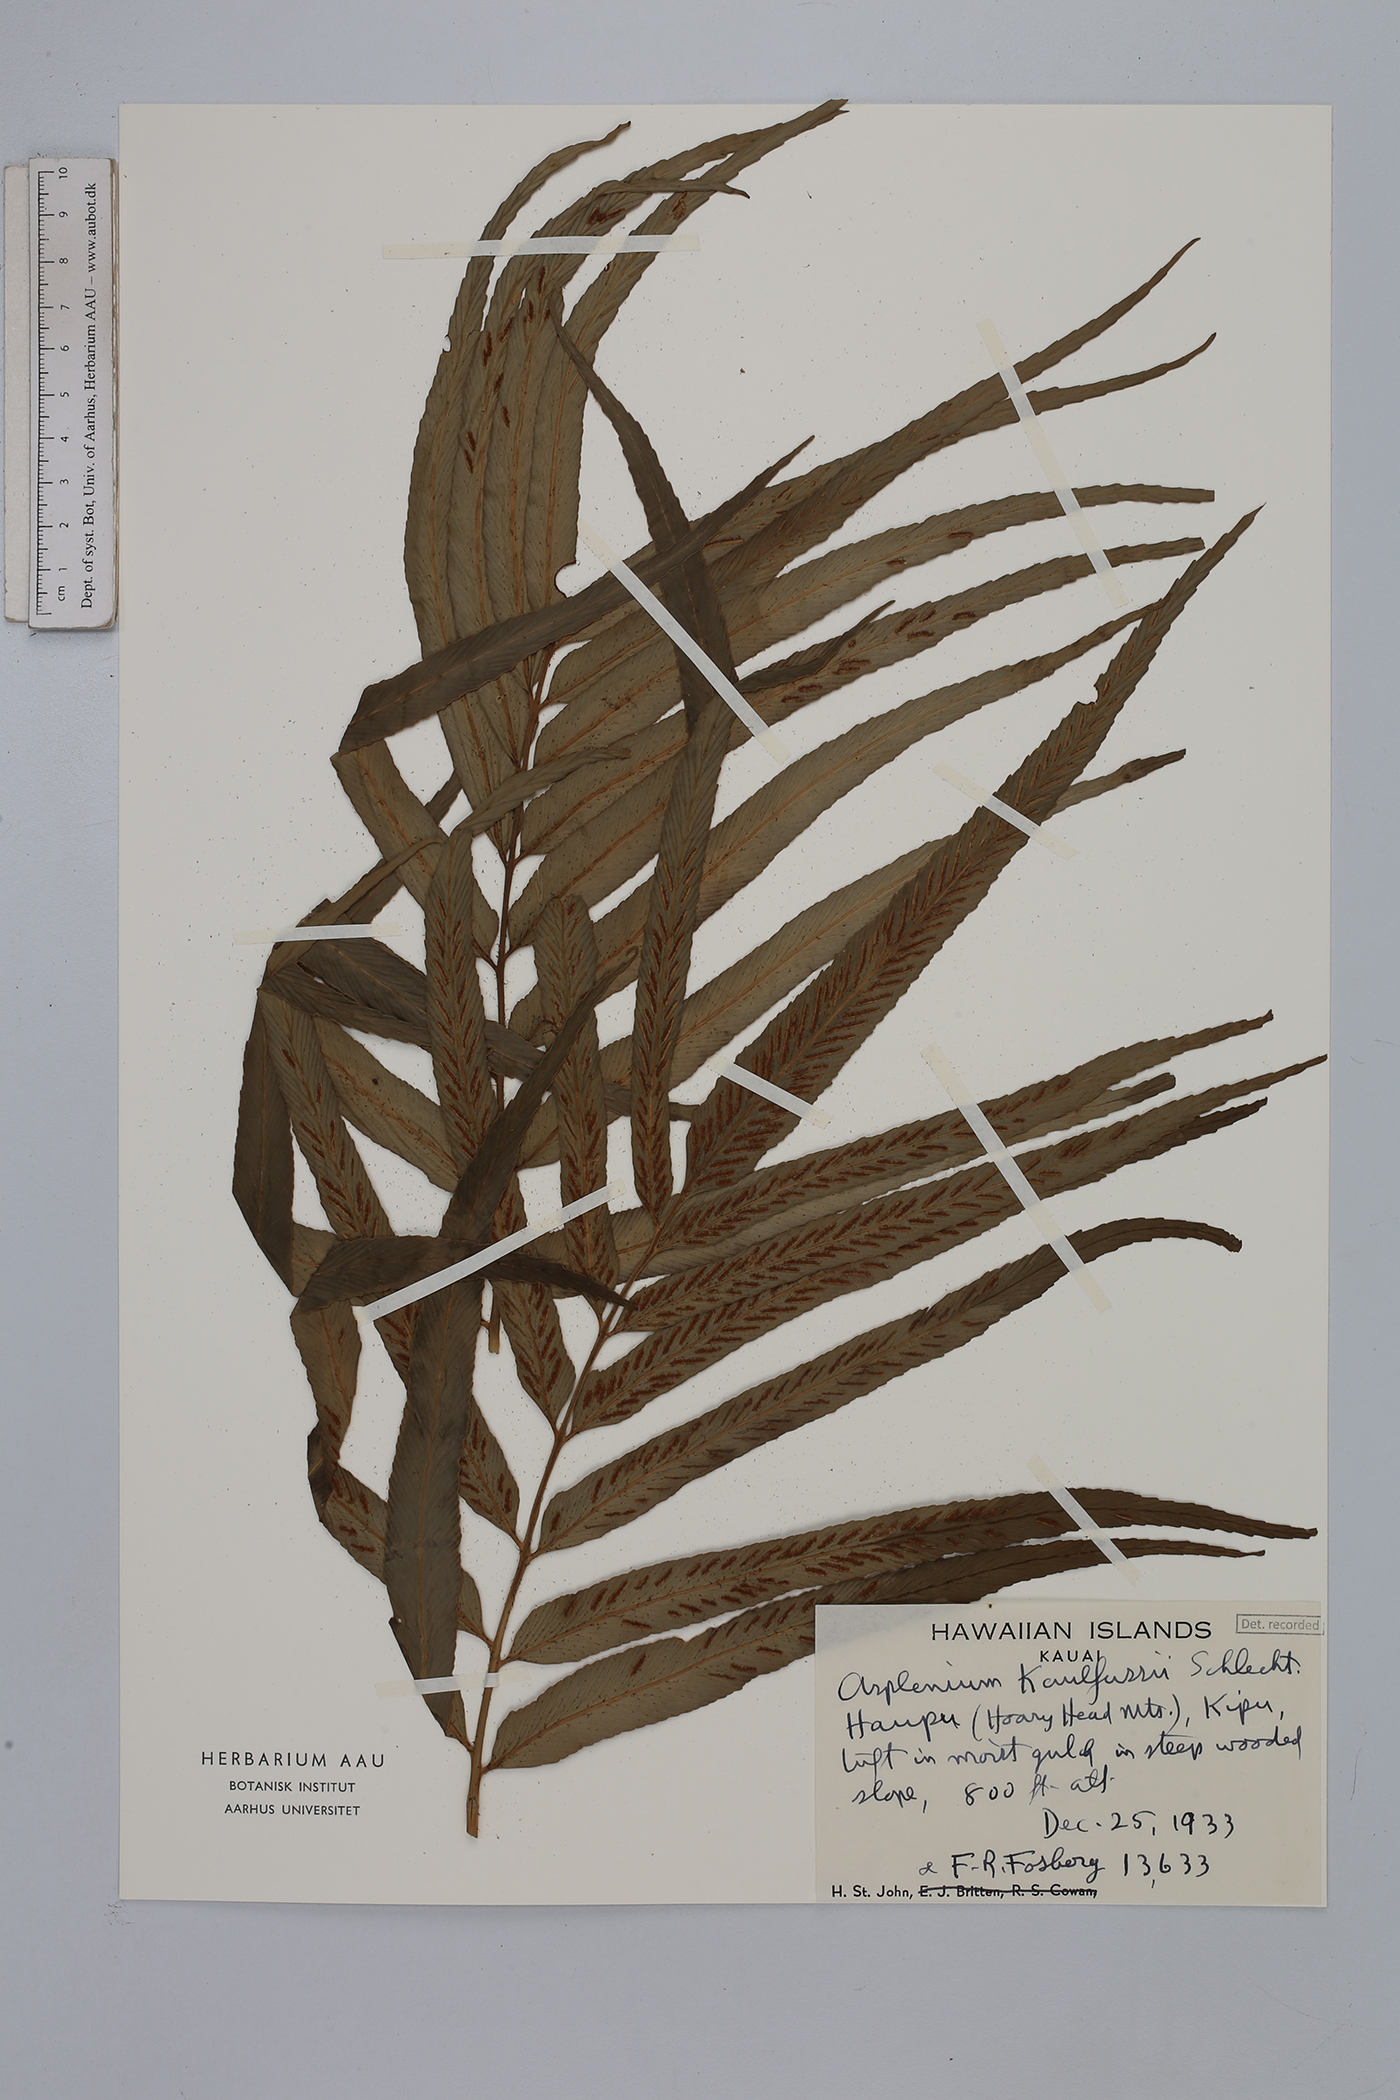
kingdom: Plantae
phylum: Tracheophyta
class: Polypodiopsida
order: Polypodiales
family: Aspleniaceae
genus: Asplenium
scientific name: Asplenium kaulfussii
